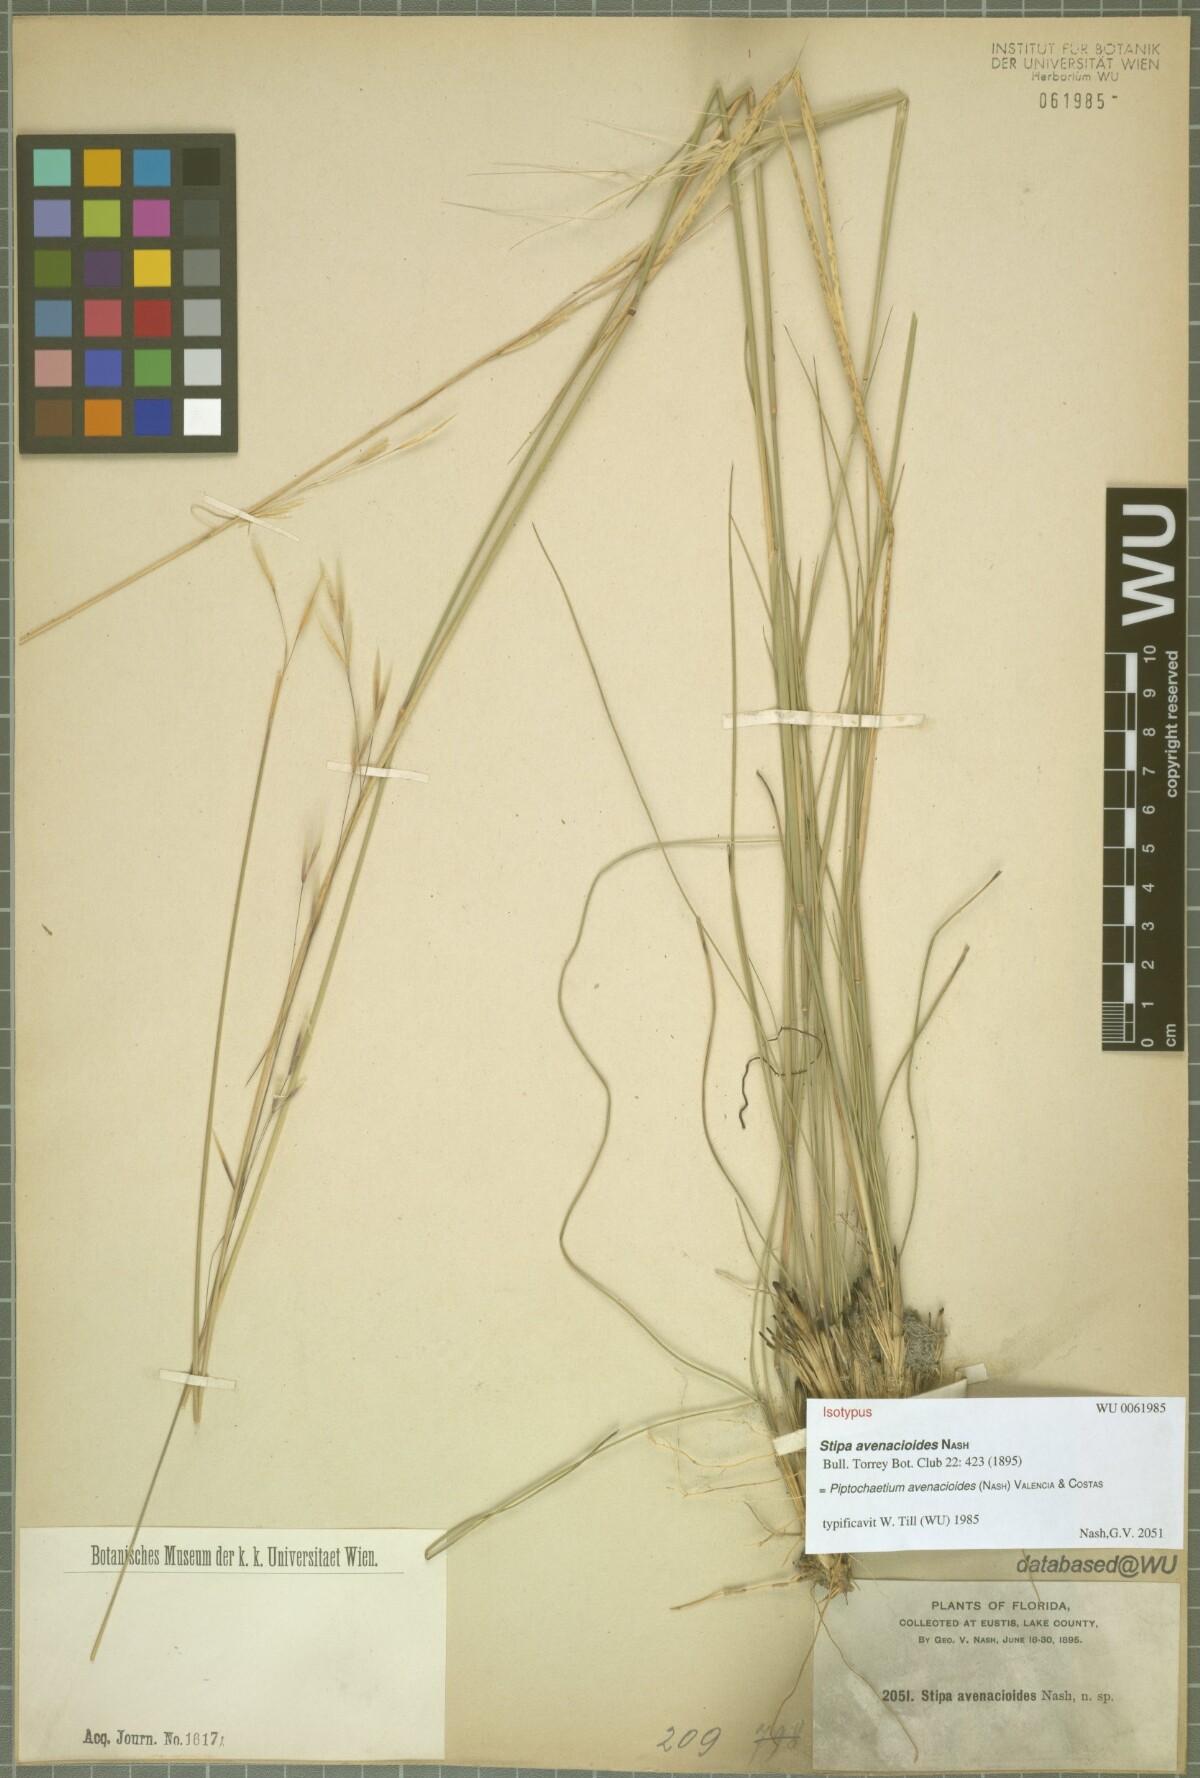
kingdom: Plantae
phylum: Tracheophyta
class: Liliopsida
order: Poales
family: Poaceae
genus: Piptochaetium
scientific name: Piptochaetium avenacioides
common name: Florida needlegrass
